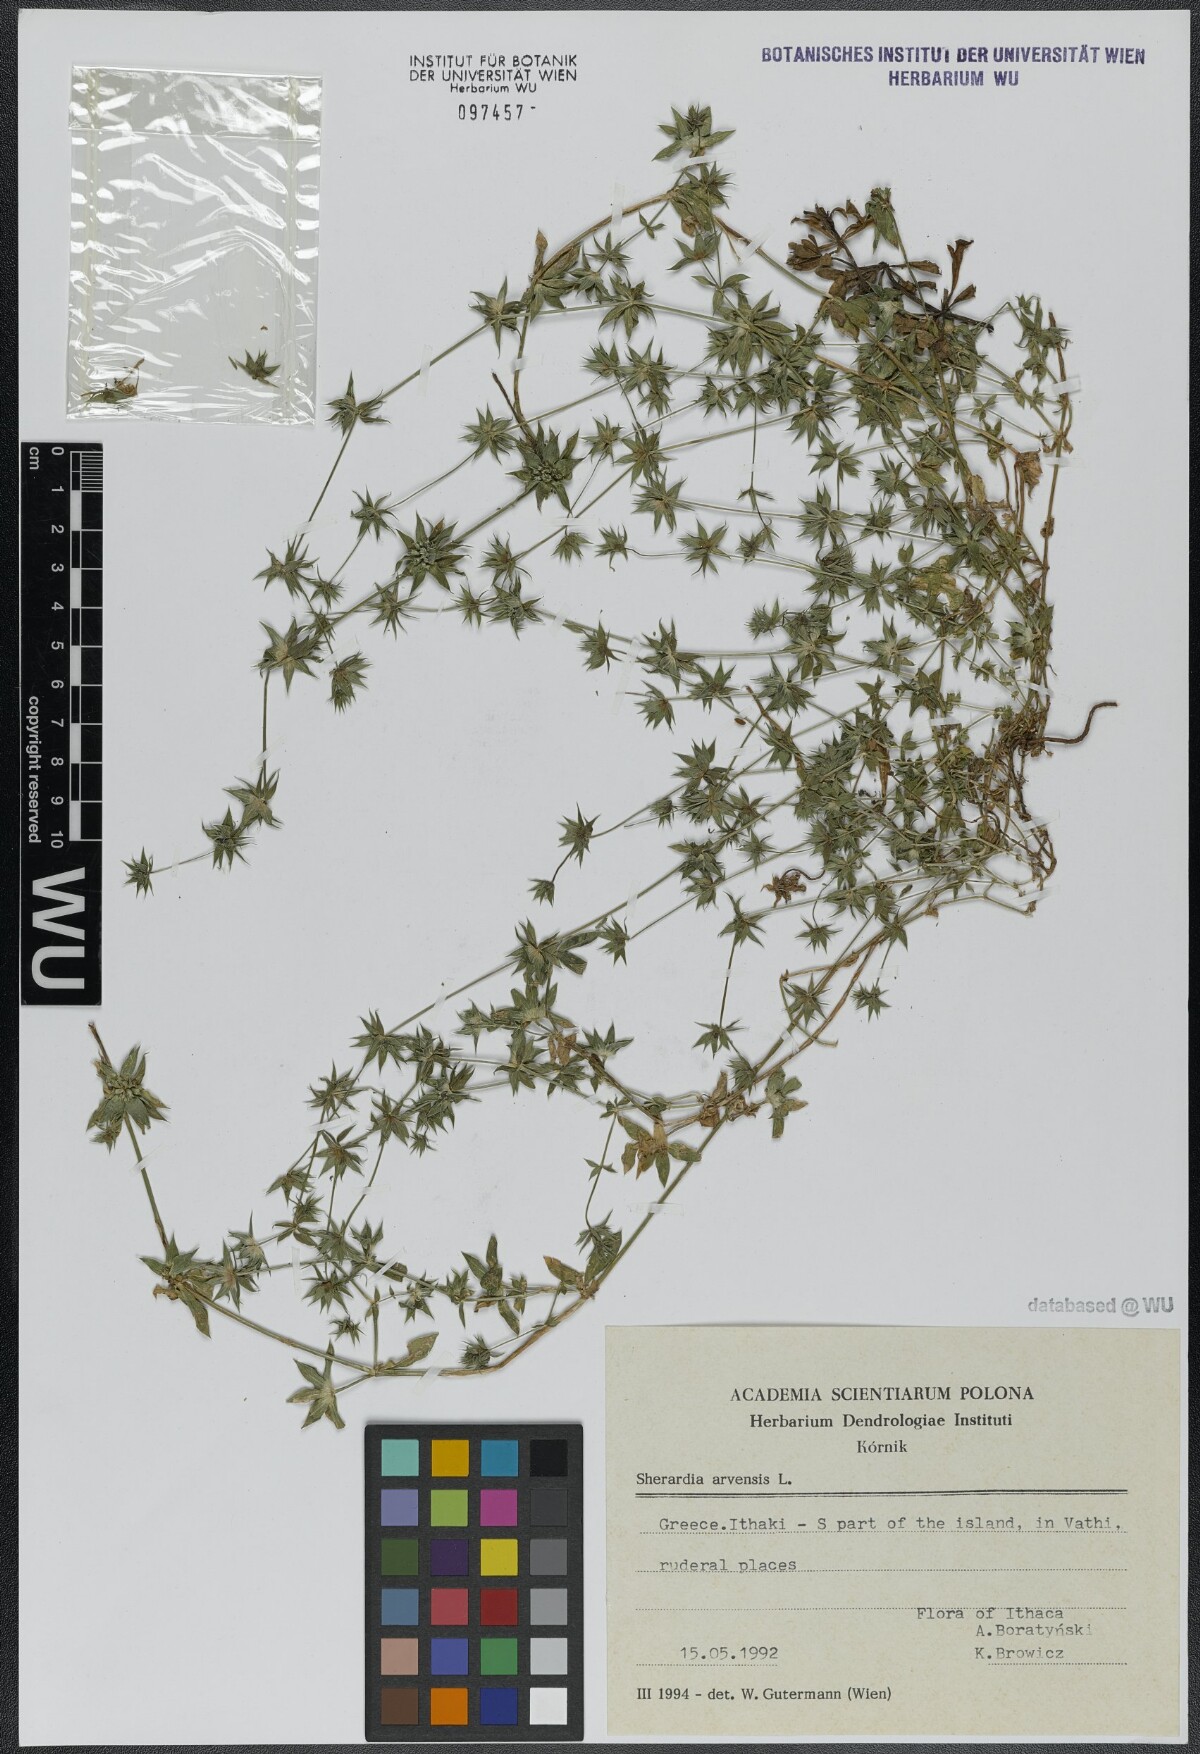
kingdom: Plantae
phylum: Tracheophyta
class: Magnoliopsida
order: Gentianales
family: Rubiaceae
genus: Sherardia
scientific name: Sherardia arvensis
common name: Field madder
